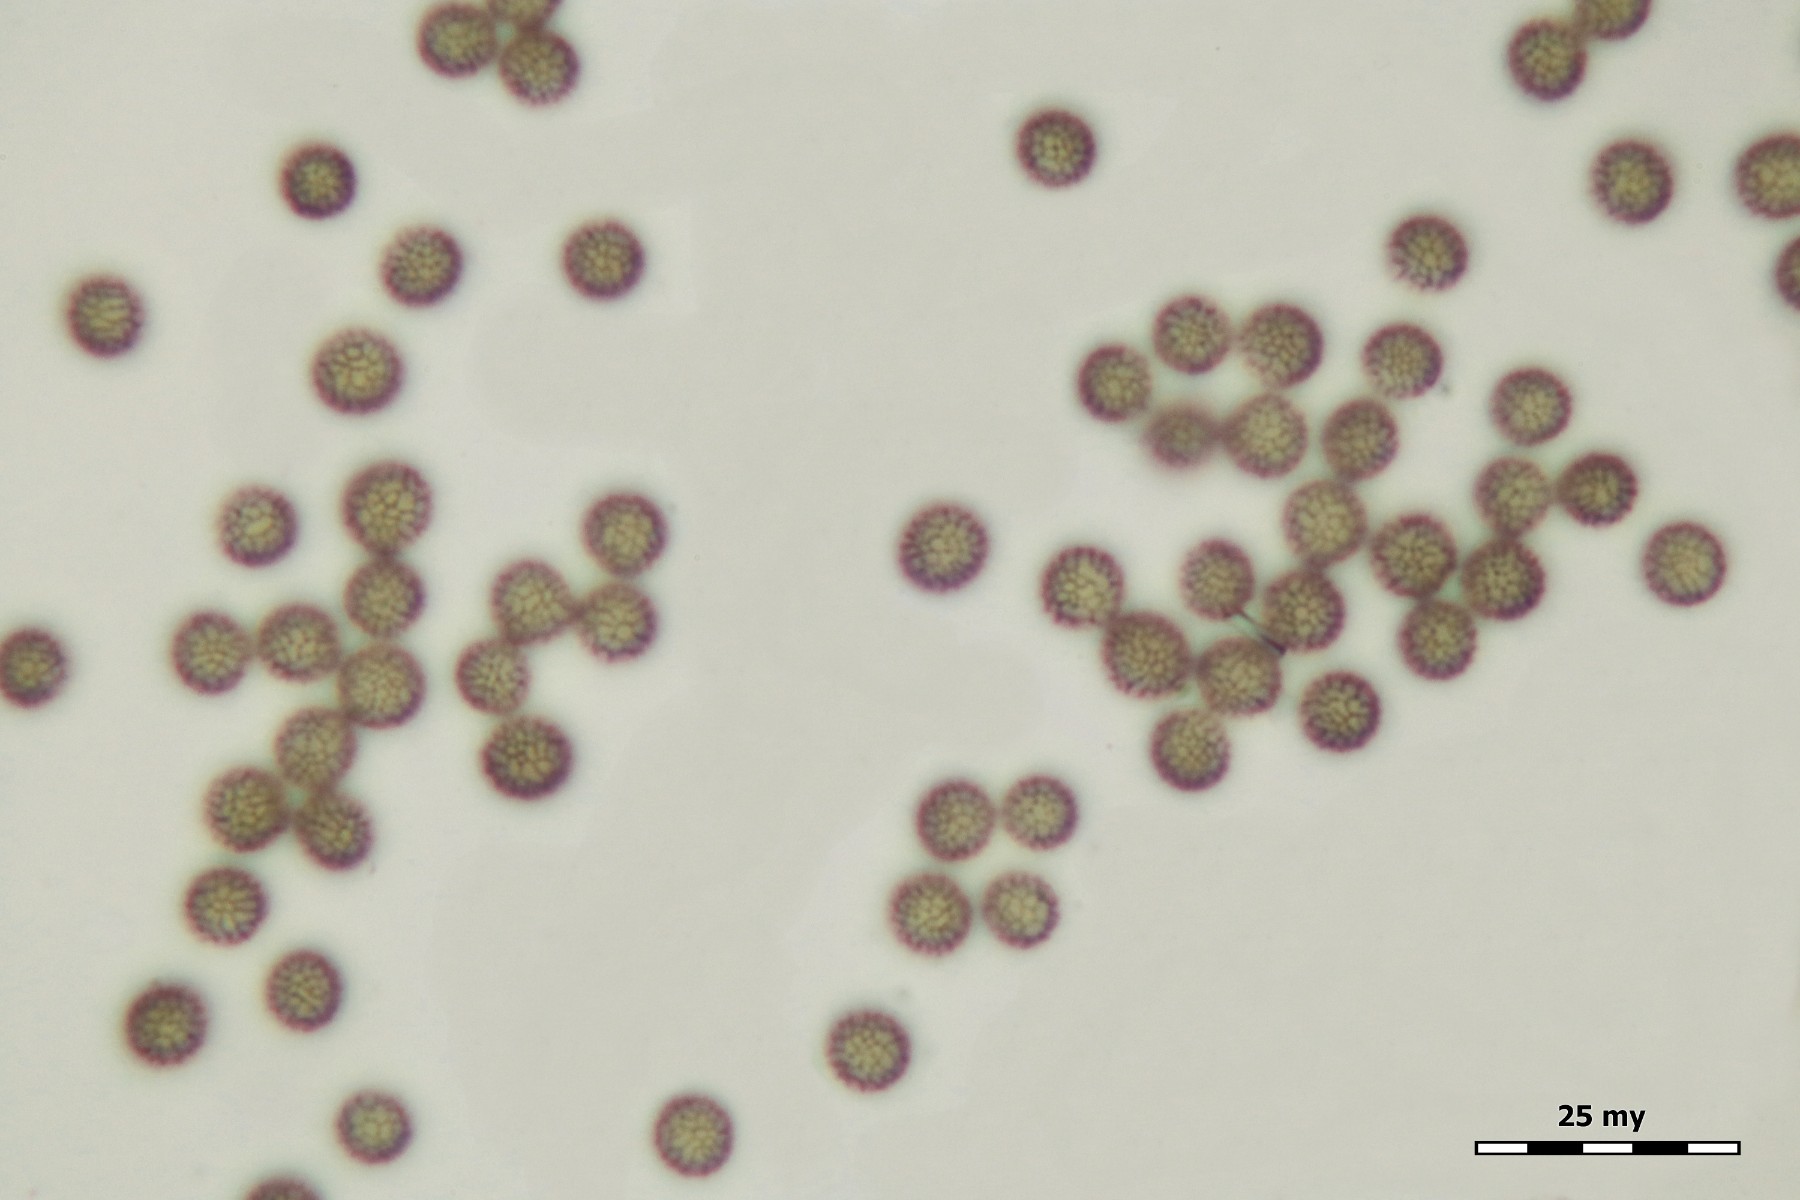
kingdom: Protozoa
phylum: Mycetozoa
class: Myxomycetes
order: Stemonitidales
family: Stemonitidaceae
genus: Symphytocarpus
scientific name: Symphytocarpus amaurochaetoides
